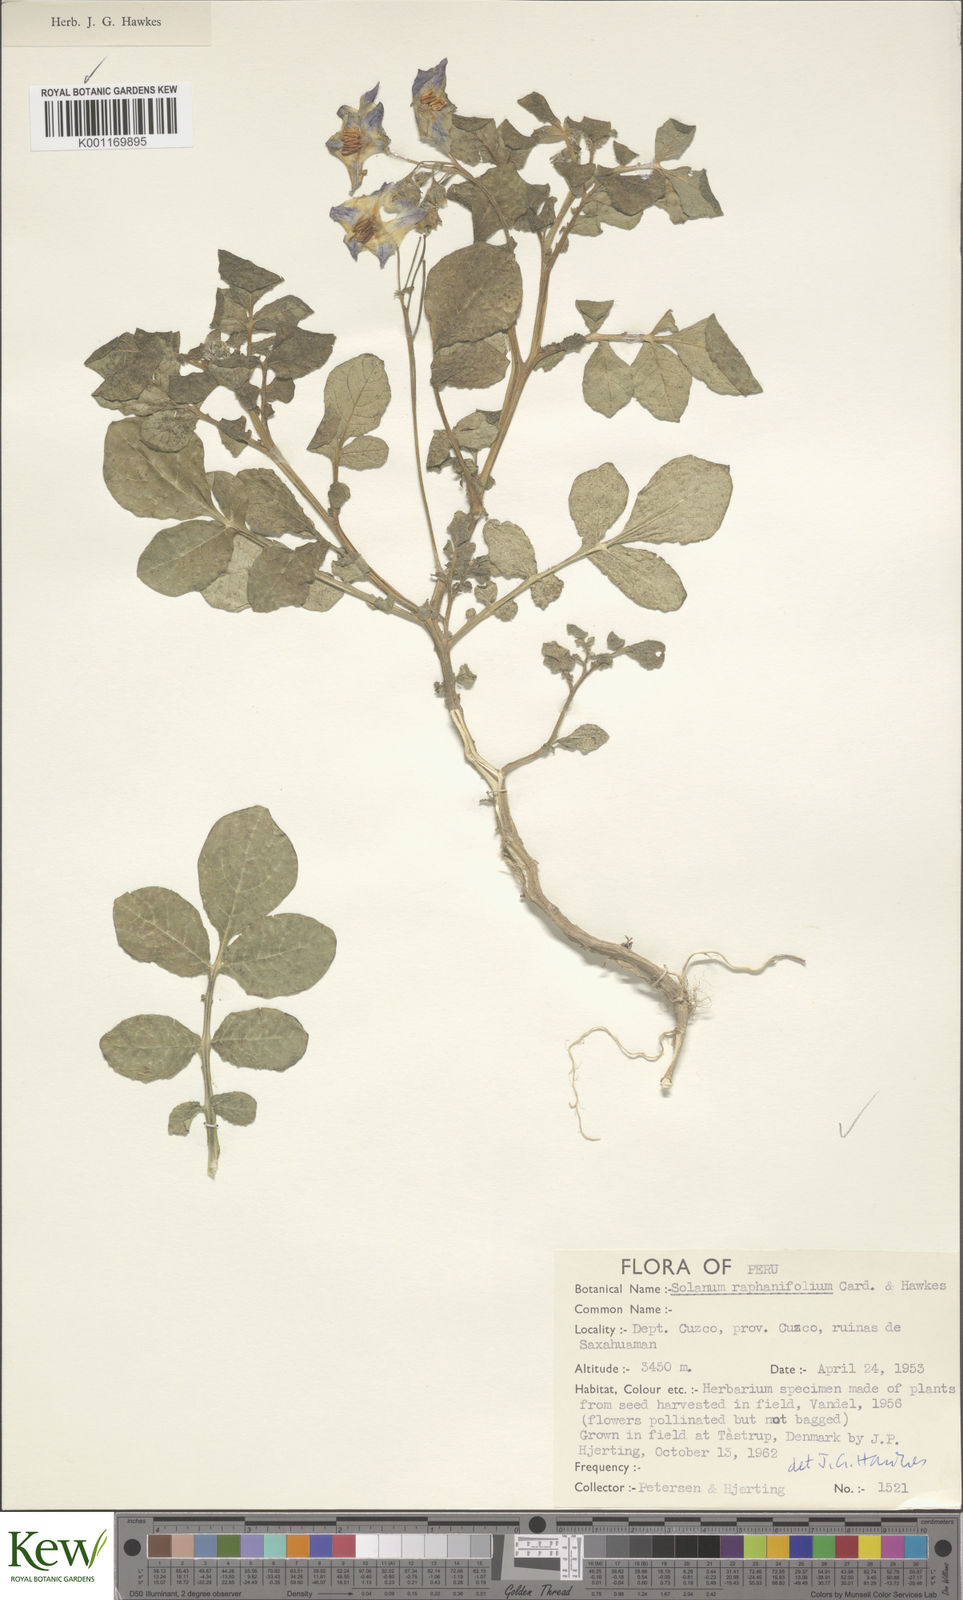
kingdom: Plantae
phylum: Tracheophyta
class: Magnoliopsida
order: Solanales
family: Solanaceae
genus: Solanum
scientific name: Solanum
